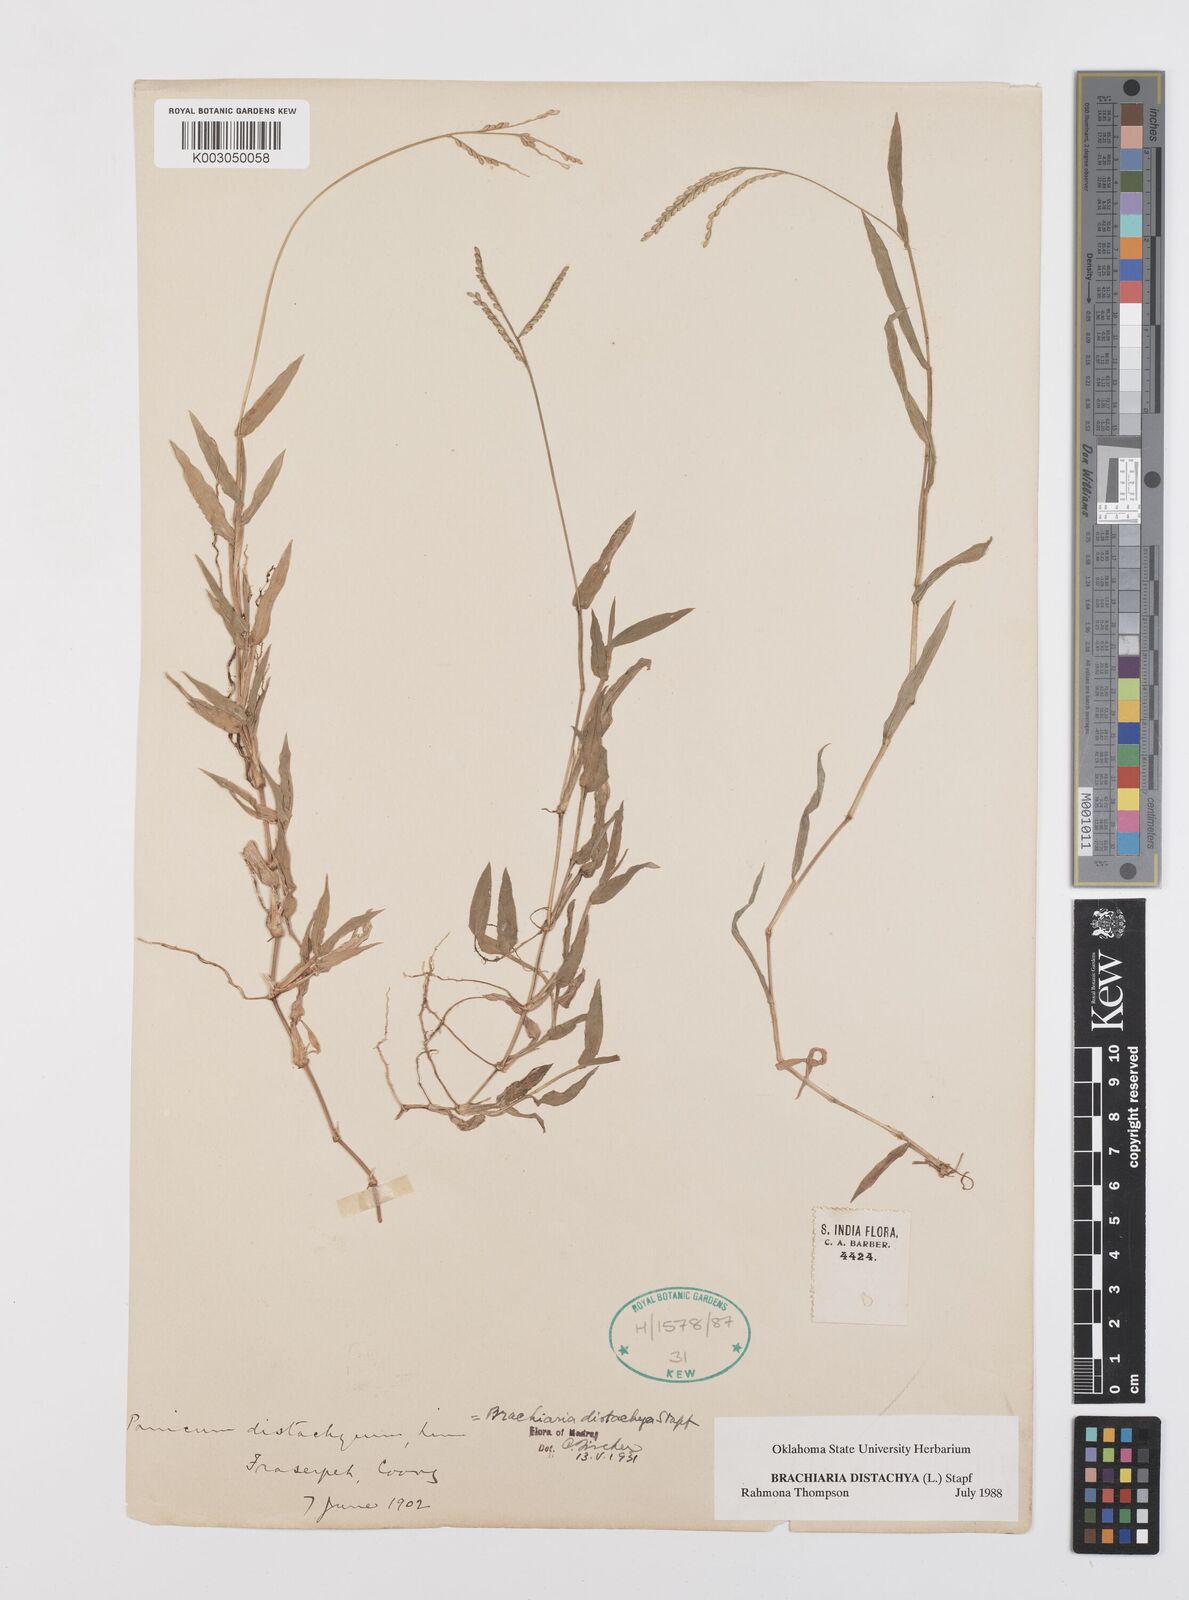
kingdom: Plantae
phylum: Tracheophyta
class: Liliopsida
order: Poales
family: Poaceae
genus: Urochloa
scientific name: Urochloa distachyos
